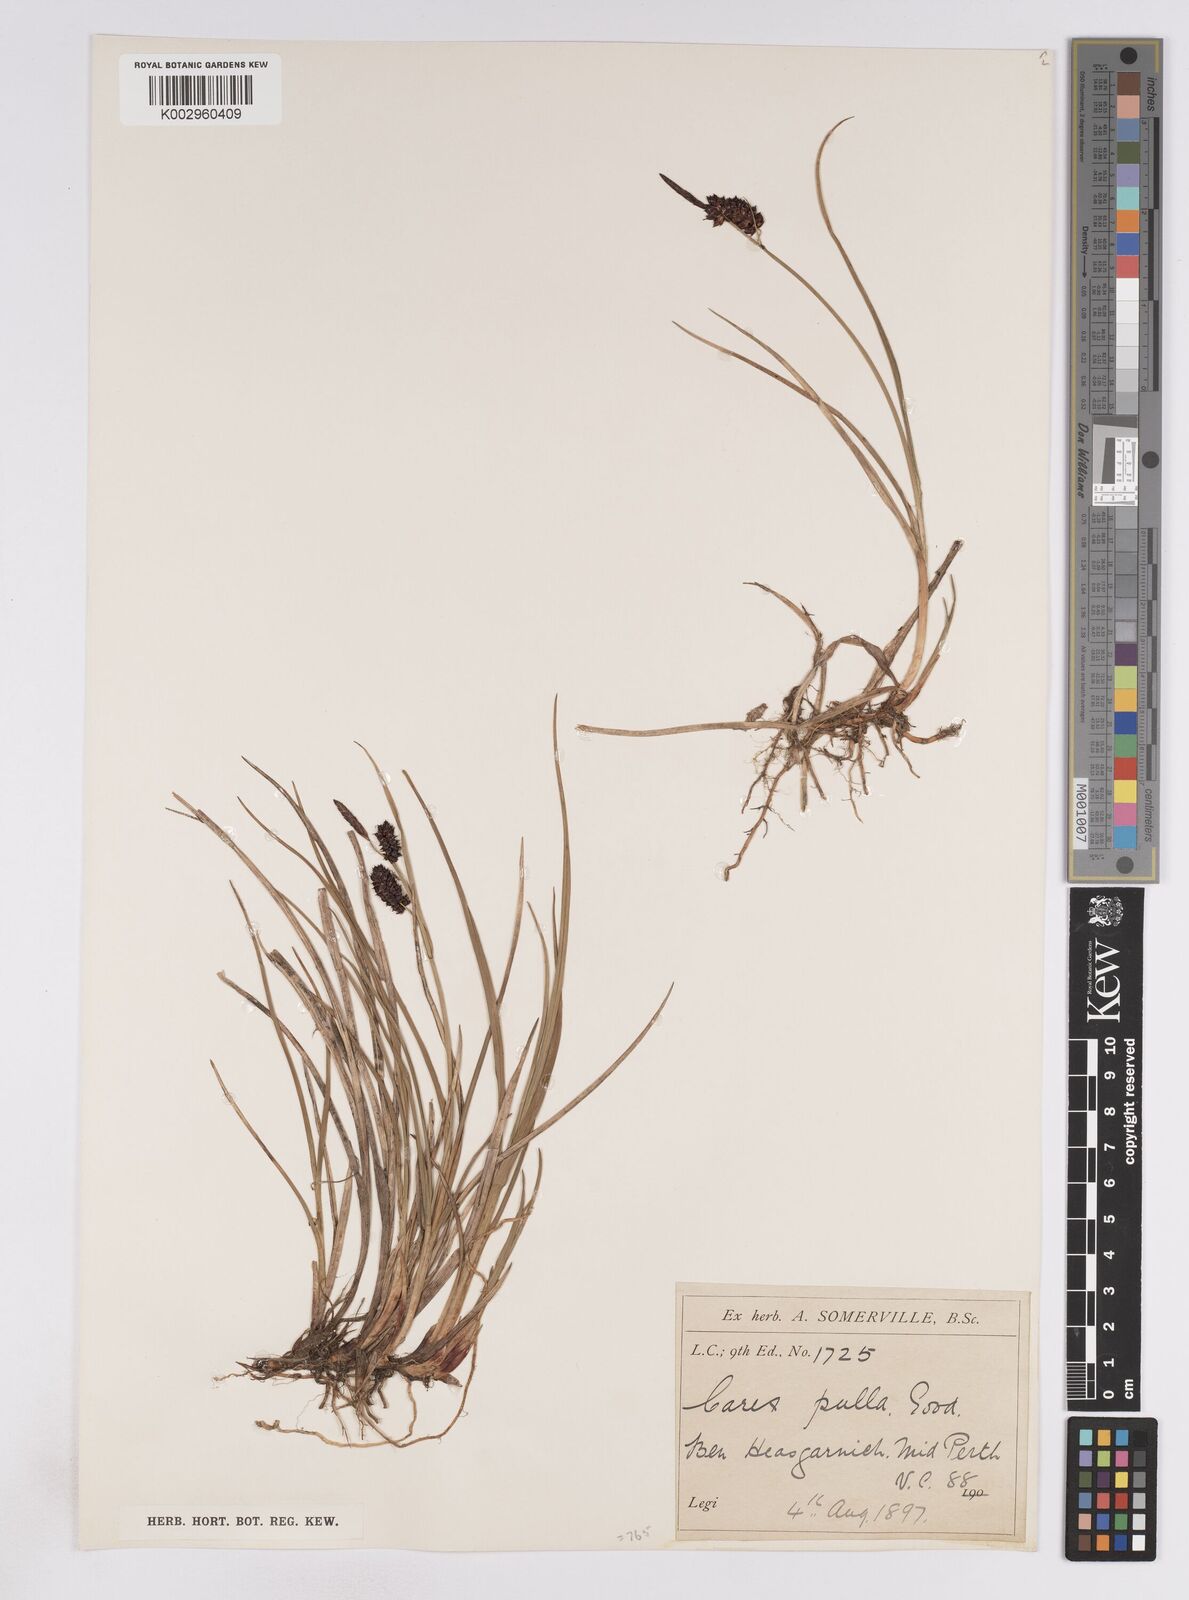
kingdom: Plantae
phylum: Tracheophyta
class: Liliopsida
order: Poales
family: Cyperaceae
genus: Carex
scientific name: Carex saxatilis
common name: Russet sedge
